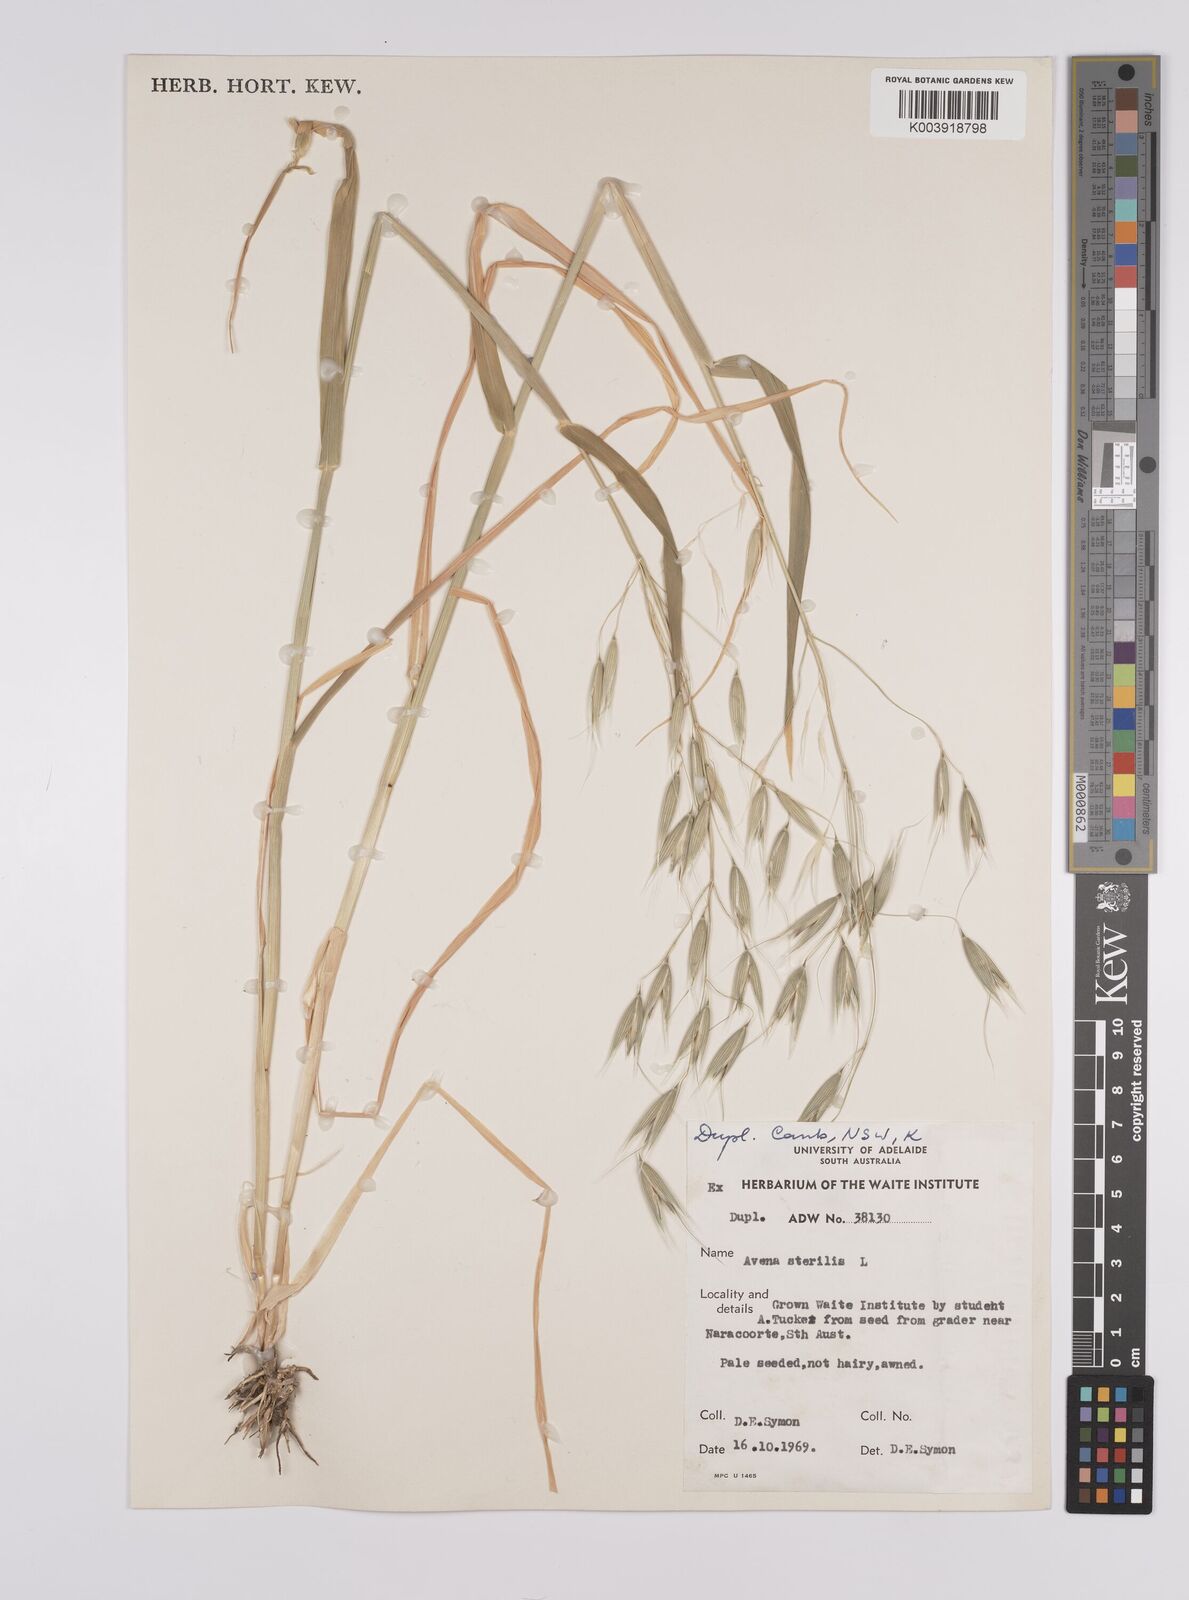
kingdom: Plantae
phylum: Tracheophyta
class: Liliopsida
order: Poales
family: Poaceae
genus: Avena
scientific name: Avena sterilis
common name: Animated oat
